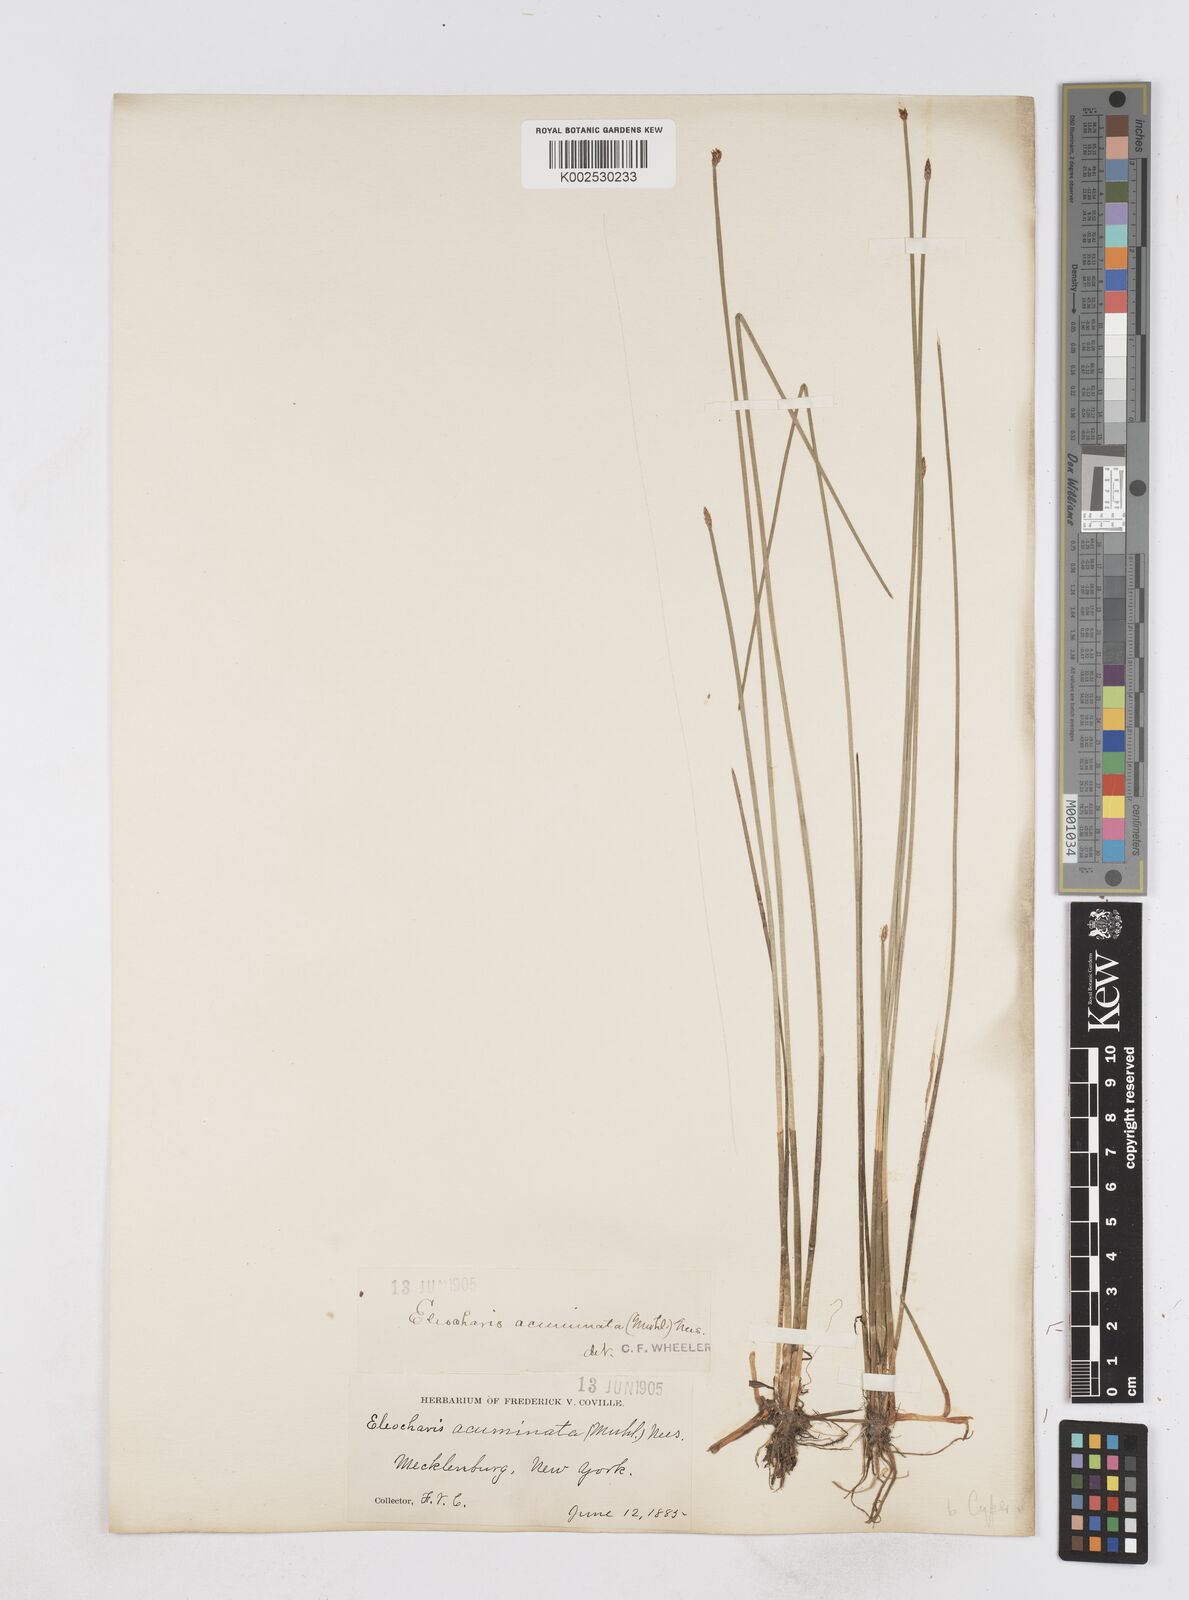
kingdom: Plantae
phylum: Tracheophyta
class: Liliopsida
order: Poales
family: Cyperaceae
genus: Eleocharis
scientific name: Eleocharis compressa
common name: Flat-stem spike-rush
